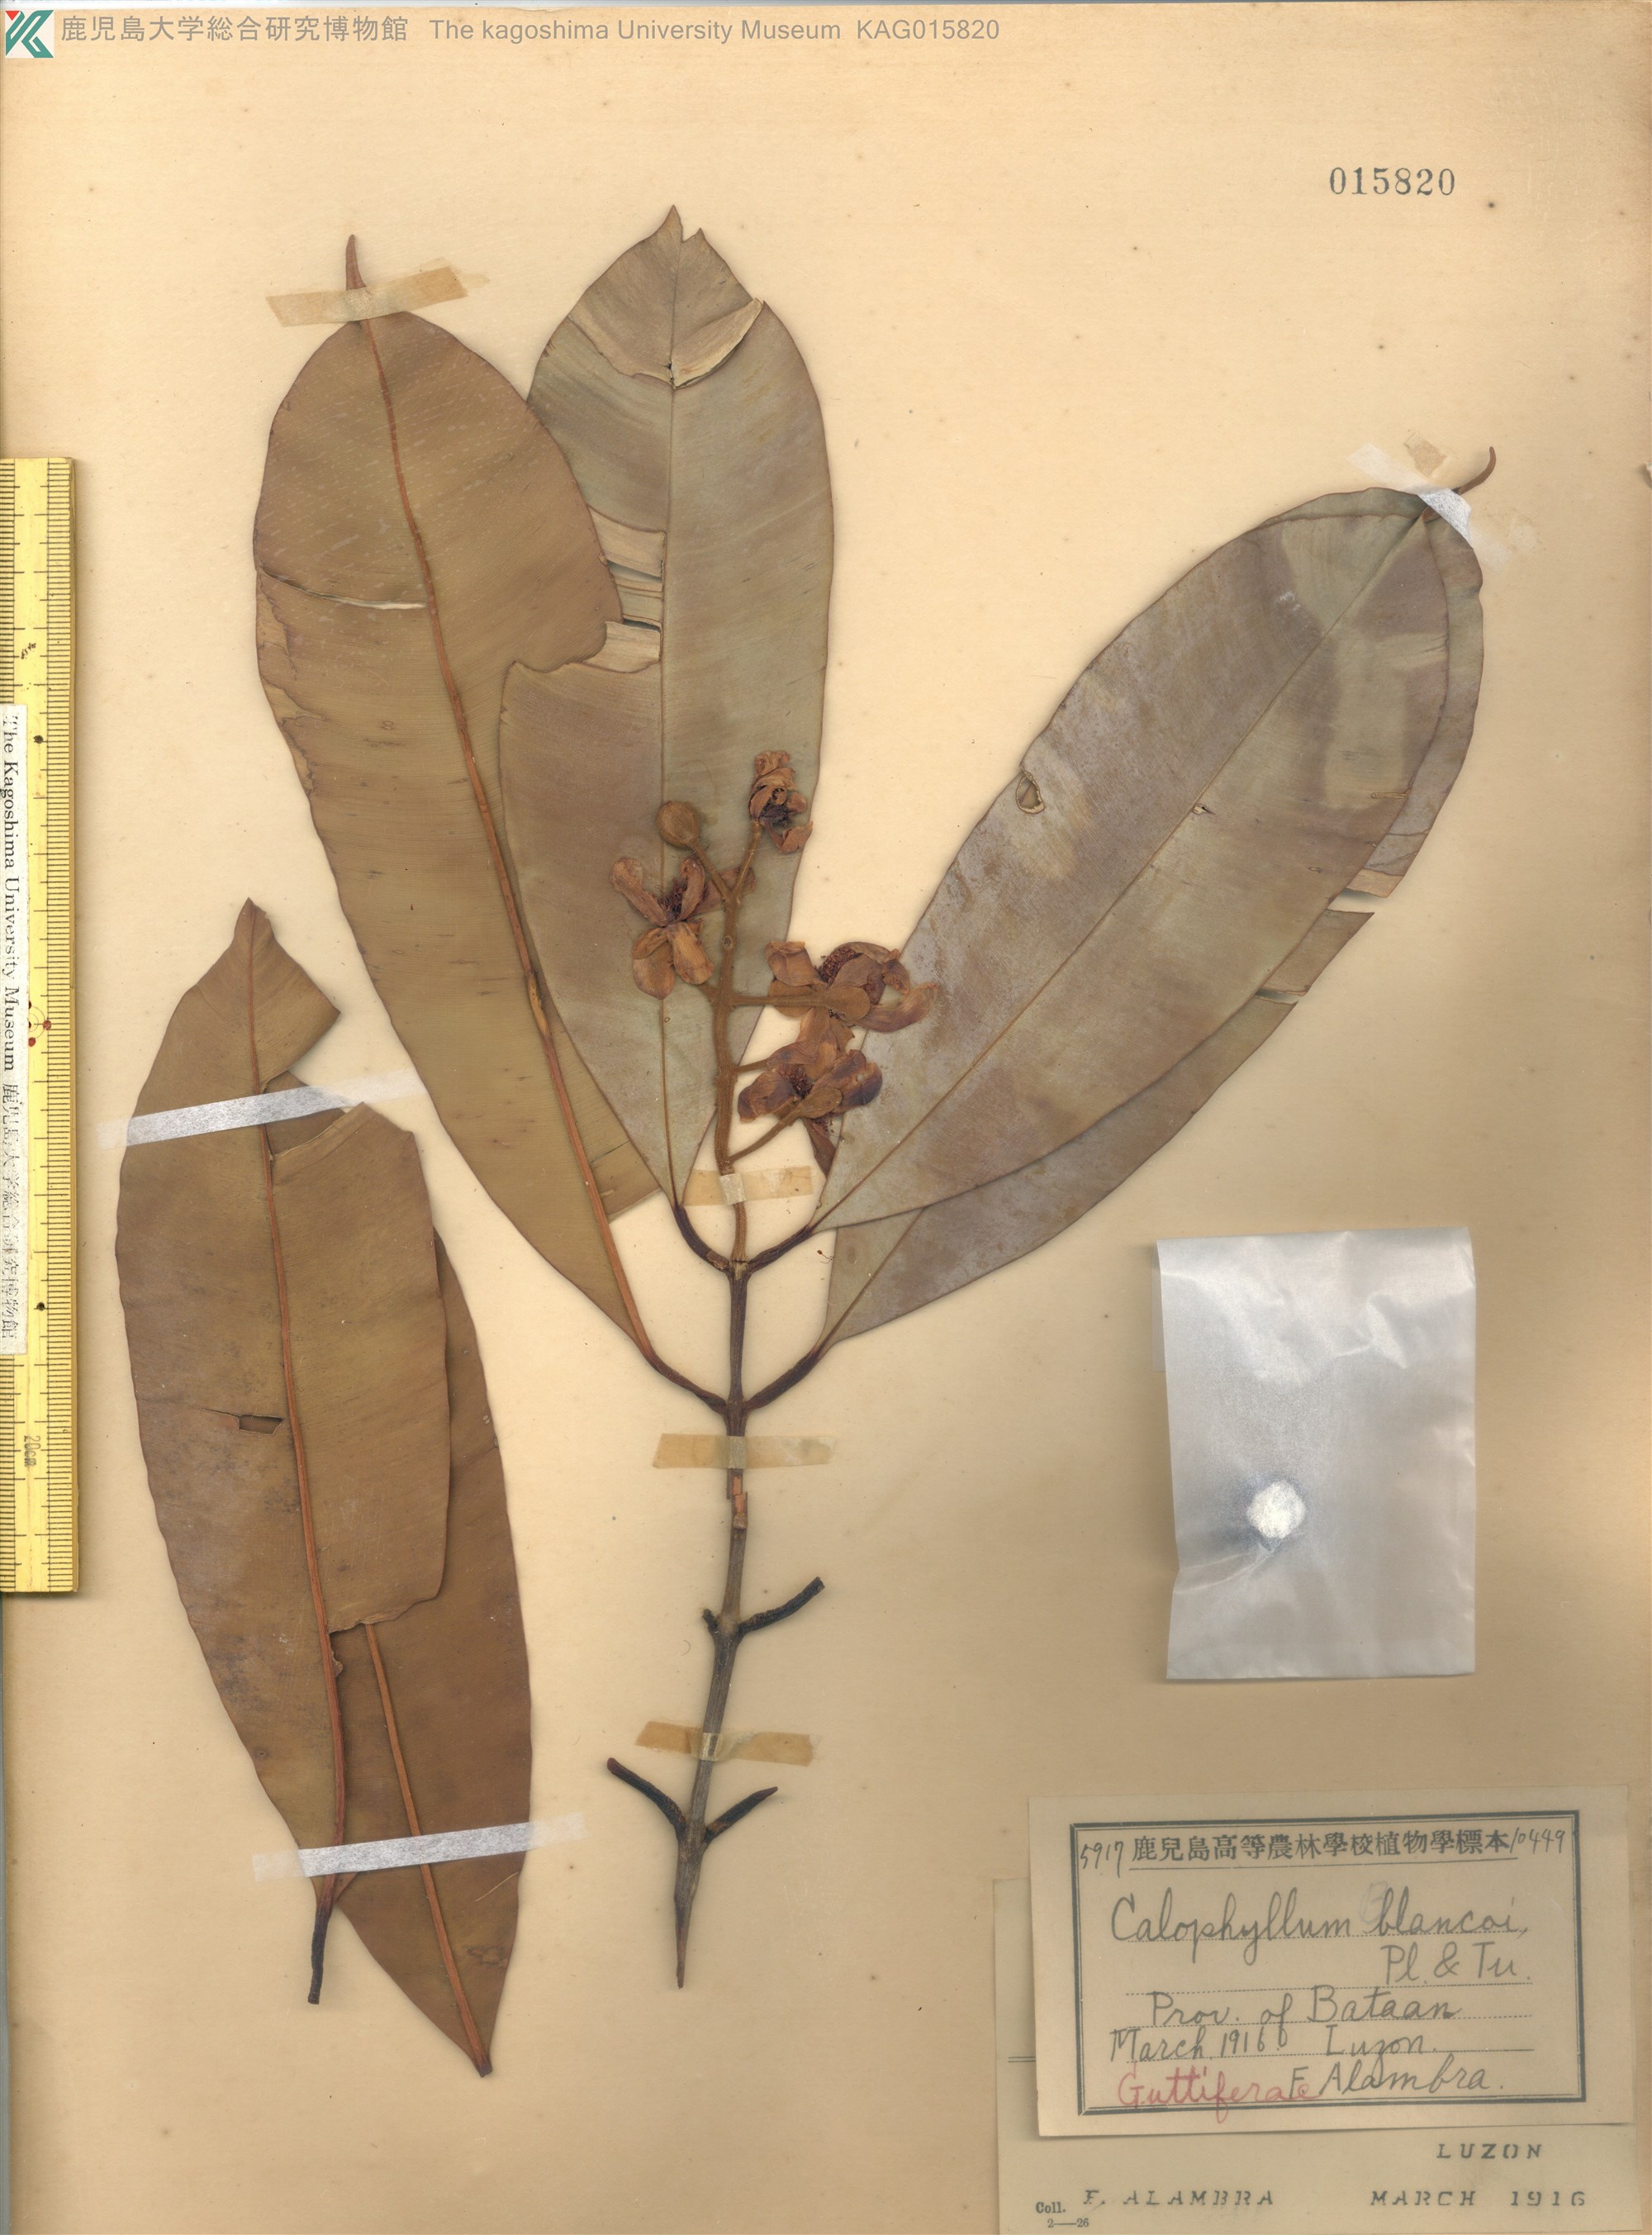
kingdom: Plantae
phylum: Tracheophyta
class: Magnoliopsida
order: Malpighiales
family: Calophyllaceae
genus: Calophyllum
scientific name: Calophyllum blancoi
